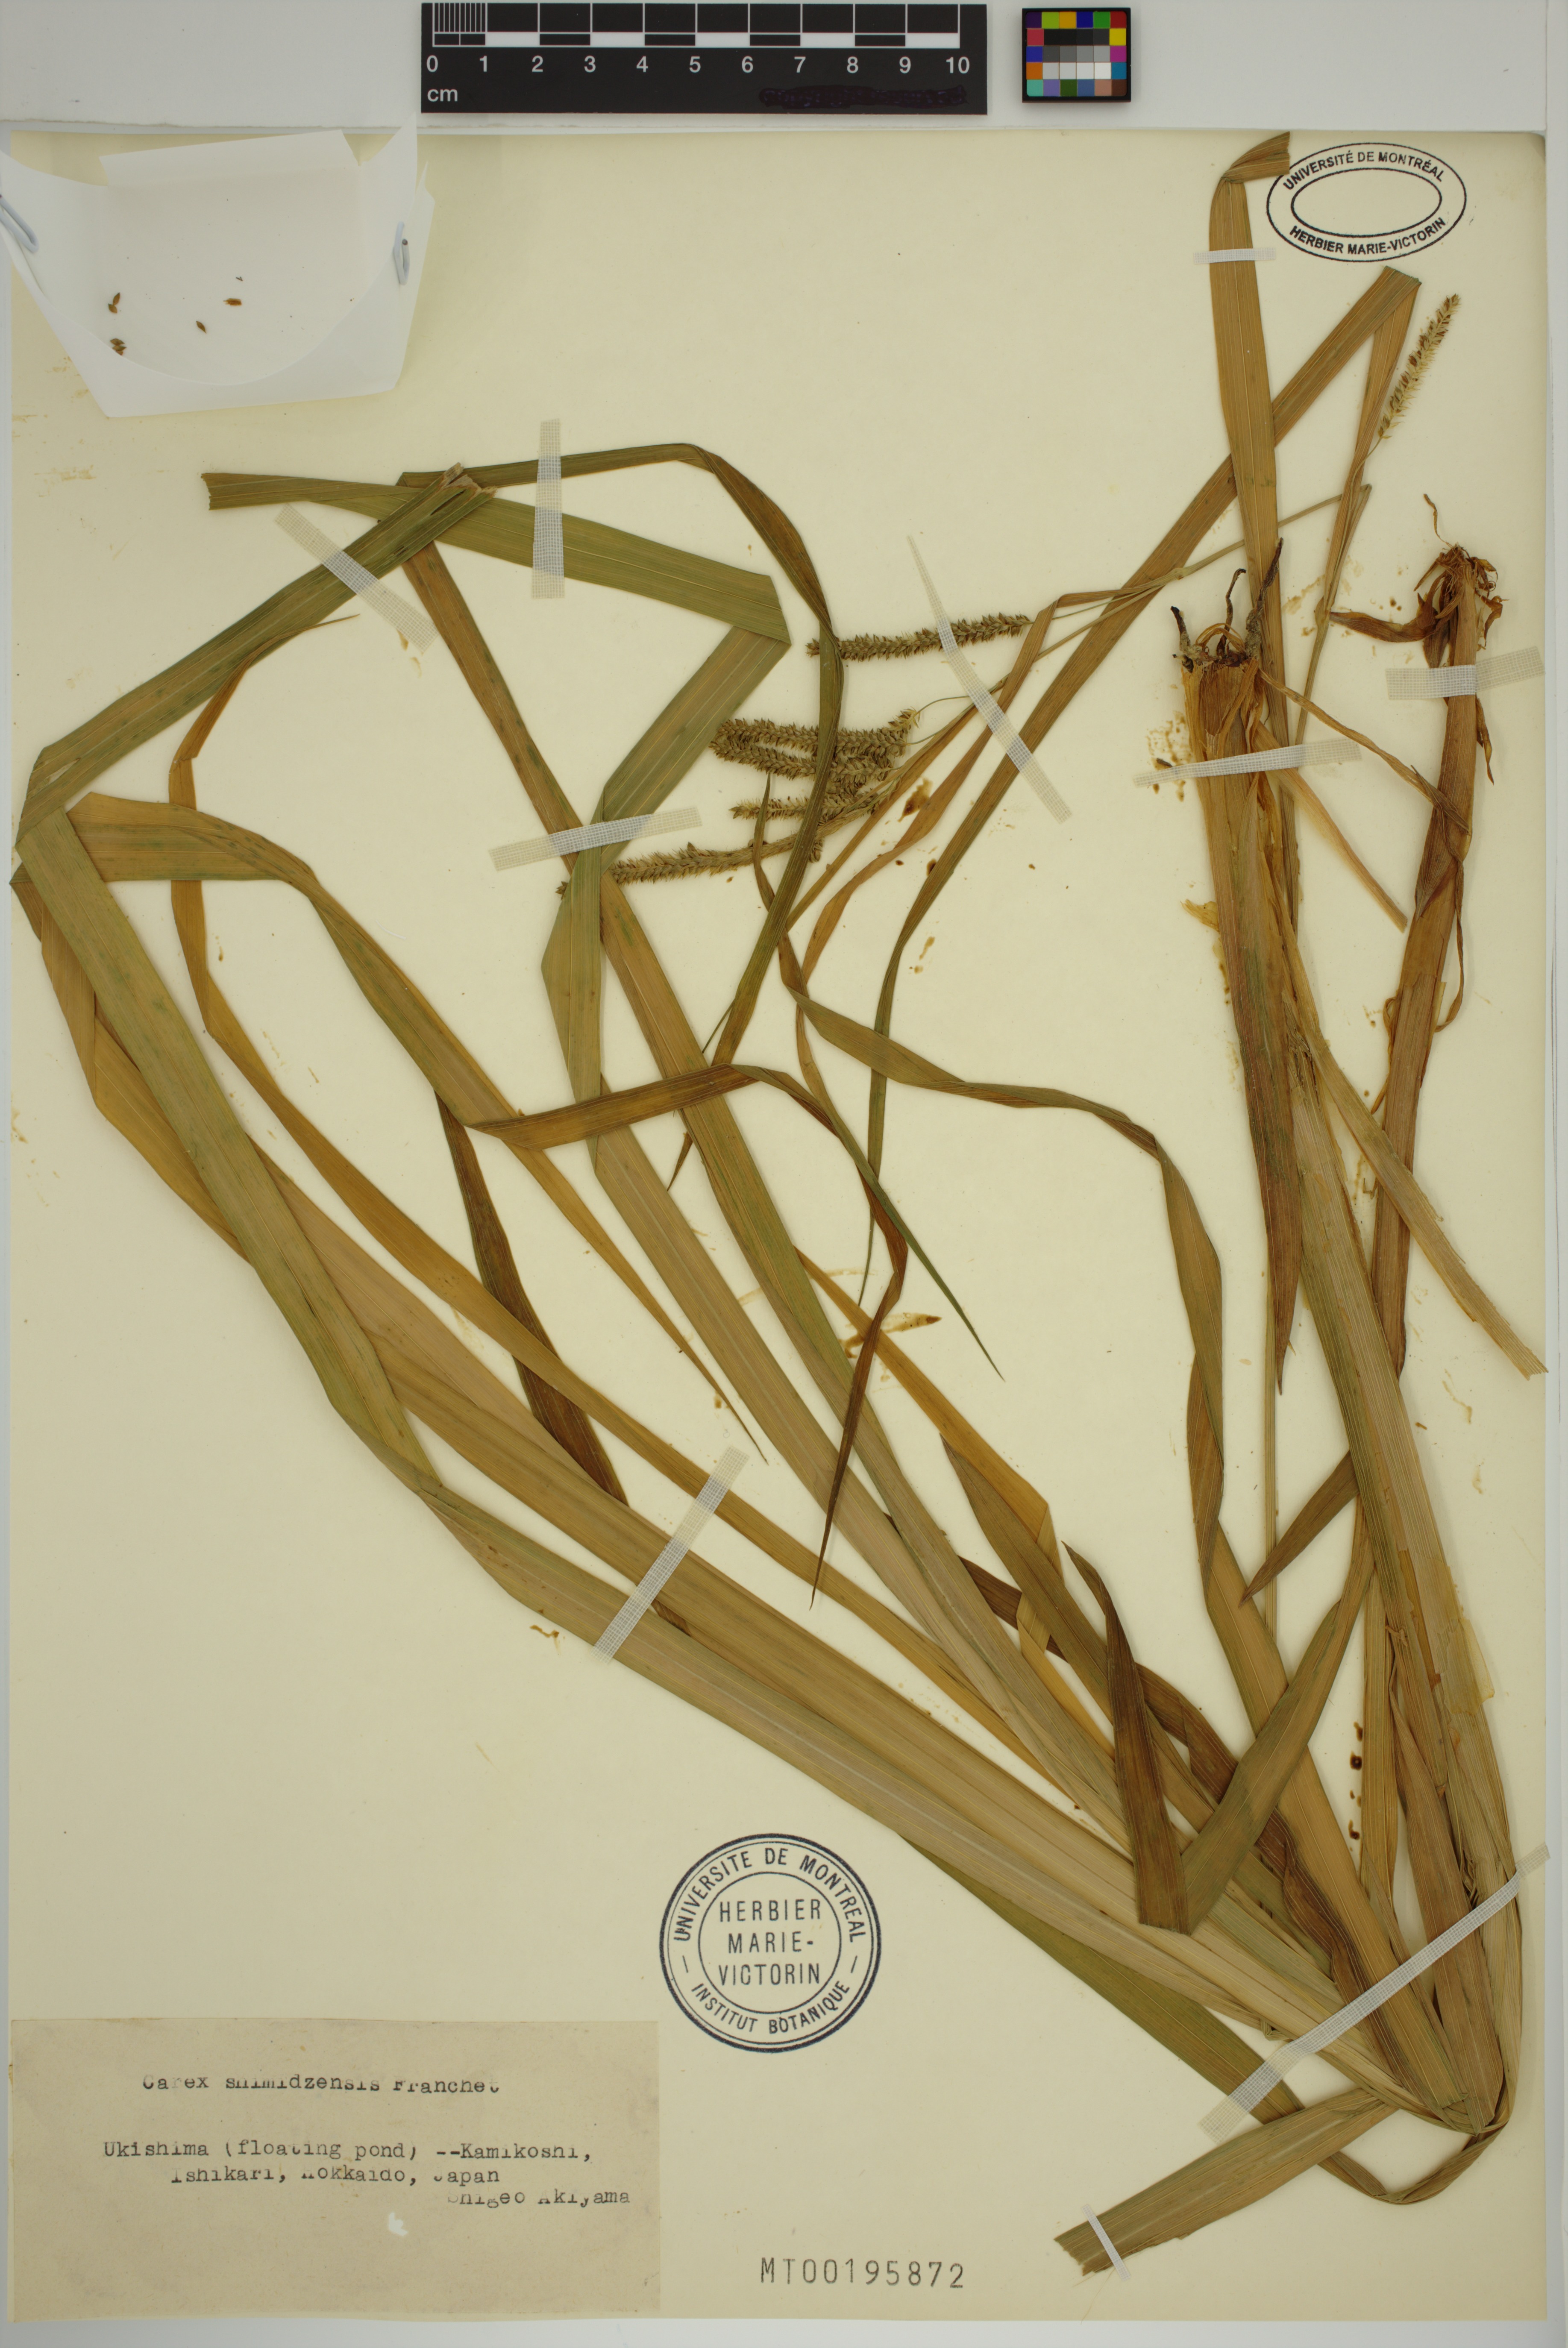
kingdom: Plantae
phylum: Tracheophyta
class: Liliopsida
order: Poales
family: Cyperaceae
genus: Carex
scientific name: Carex shimidzensis
